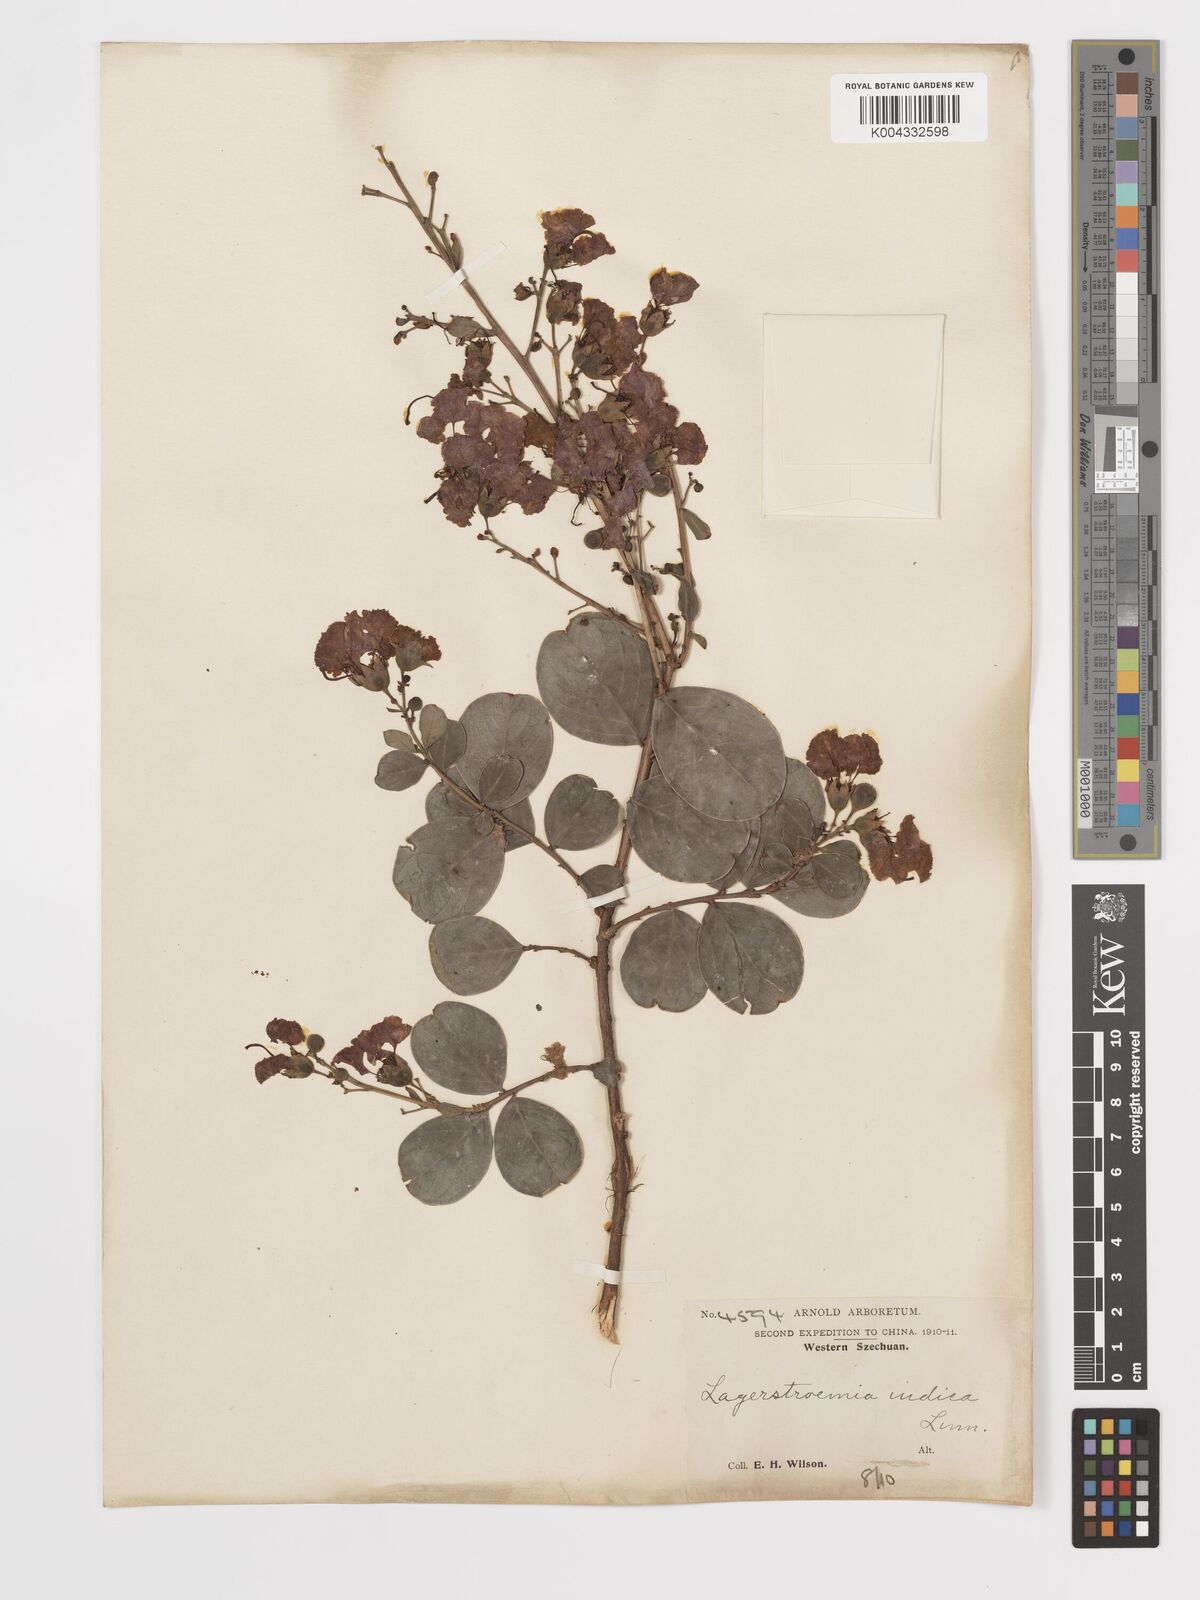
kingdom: Plantae
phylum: Tracheophyta
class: Magnoliopsida
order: Myrtales
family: Lythraceae
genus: Lagerstroemia
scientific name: Lagerstroemia indica
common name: Crape-myrtle
